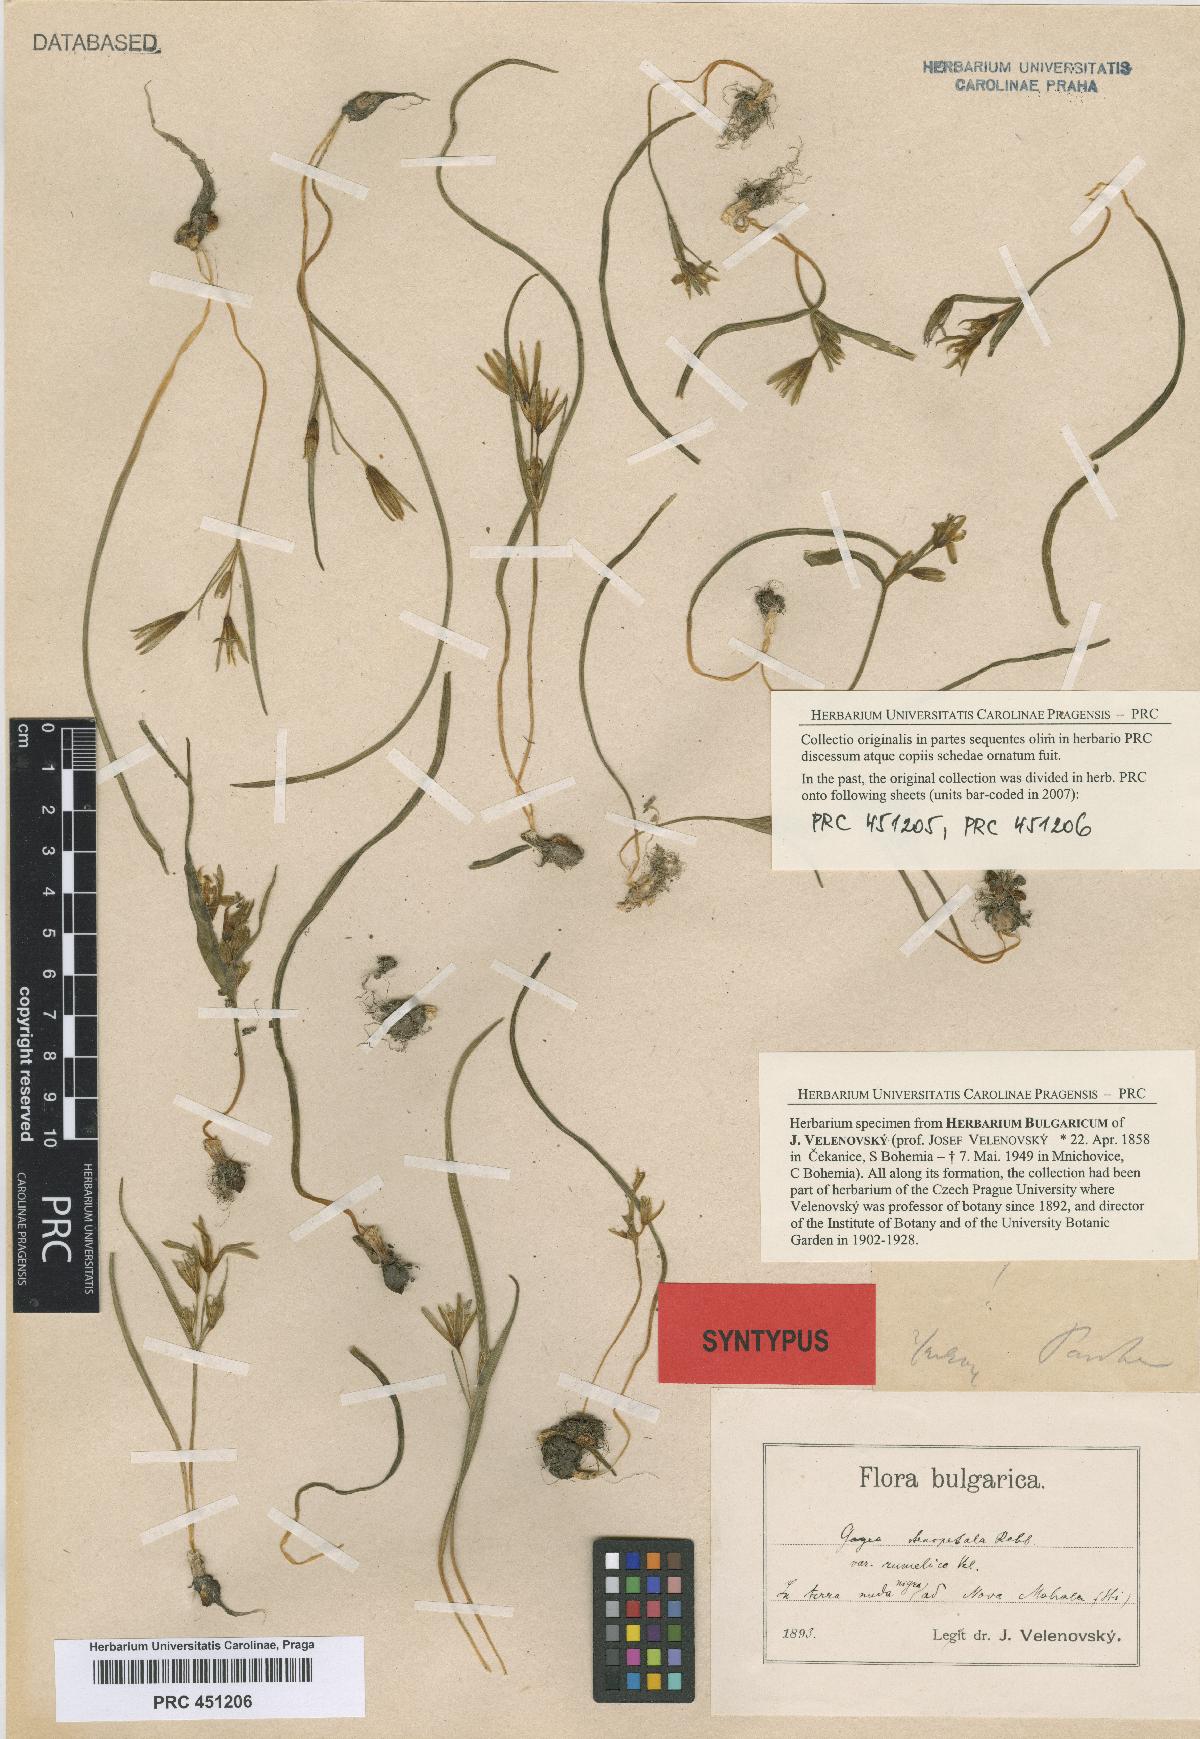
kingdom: Plantae
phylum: Tracheophyta
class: Liliopsida
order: Liliales
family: Liliaceae
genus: Gagea
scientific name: Gagea pratensis
